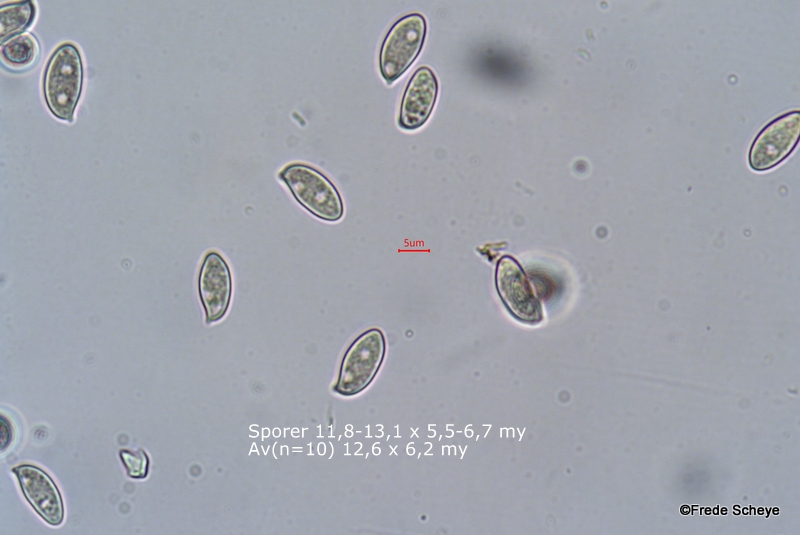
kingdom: Fungi
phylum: Basidiomycota
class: Agaricomycetes
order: Agaricales
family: Agaricaceae
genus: Lepiota
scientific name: Lepiota erminea
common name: hvid parasolhat
